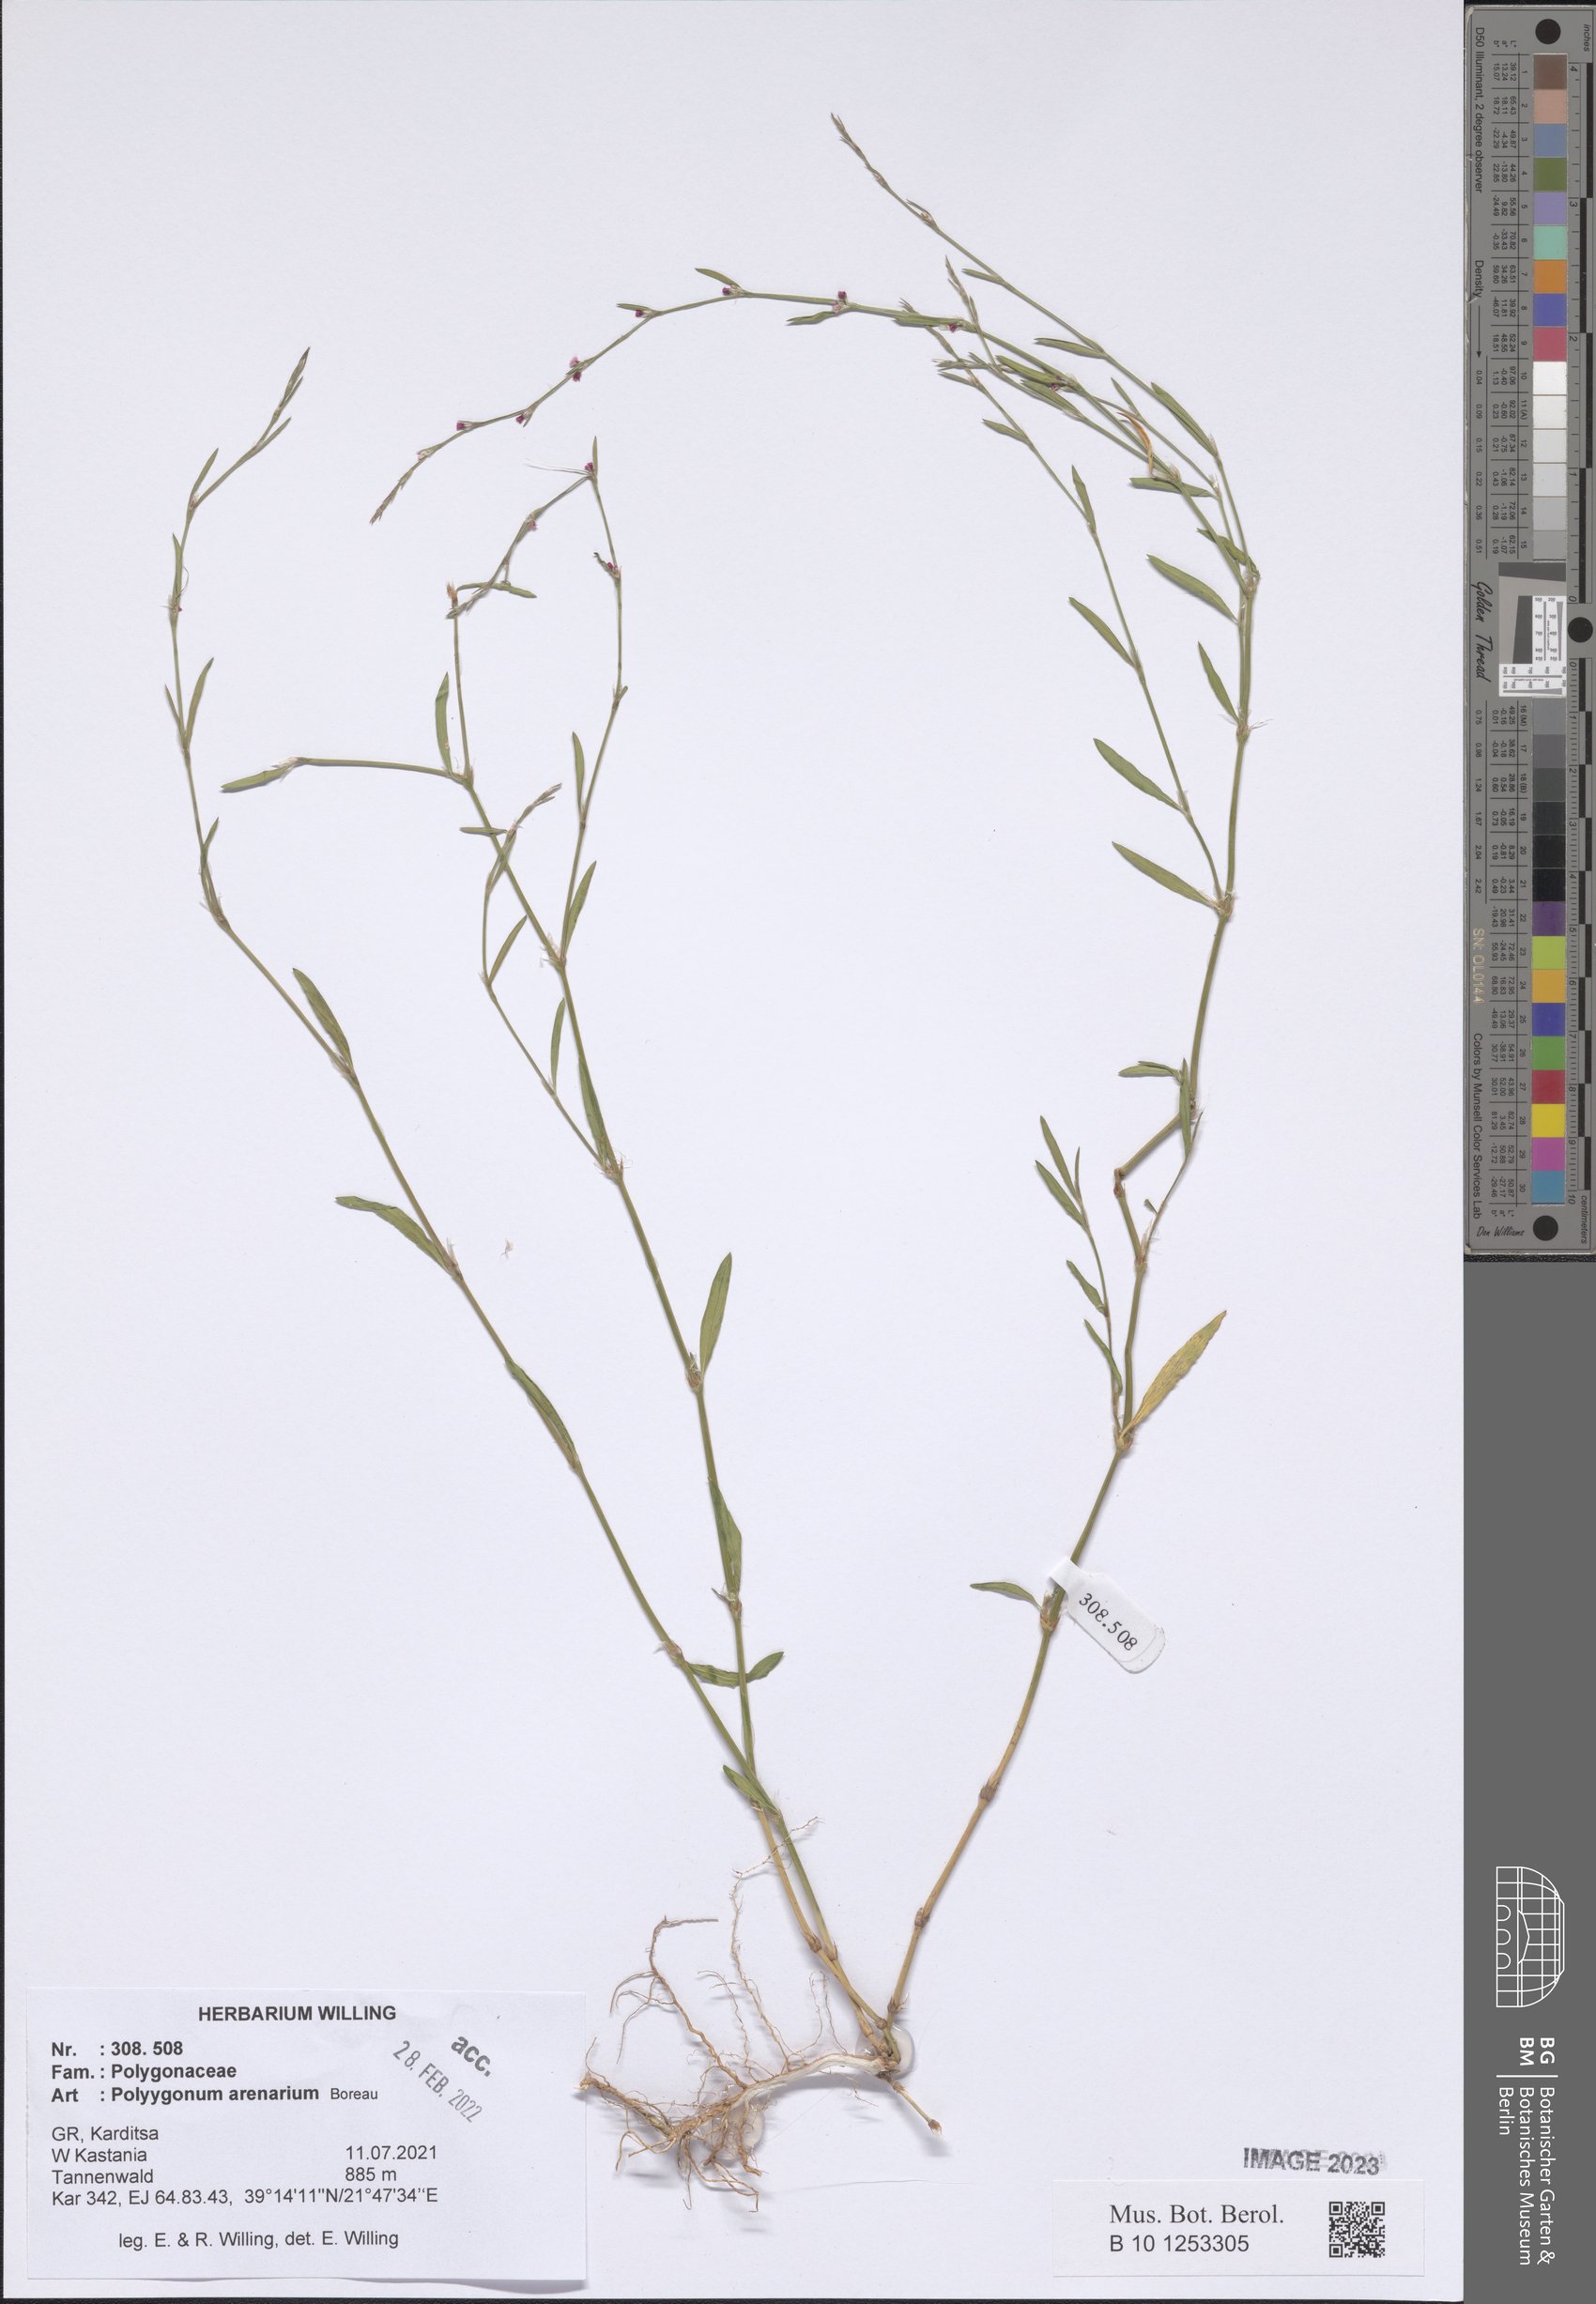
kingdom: Plantae
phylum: Tracheophyta
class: Magnoliopsida
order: Caryophyllales
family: Polygonaceae
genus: Polygonum
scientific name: Polygonum arenarium
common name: Lesser red-knotgrass
